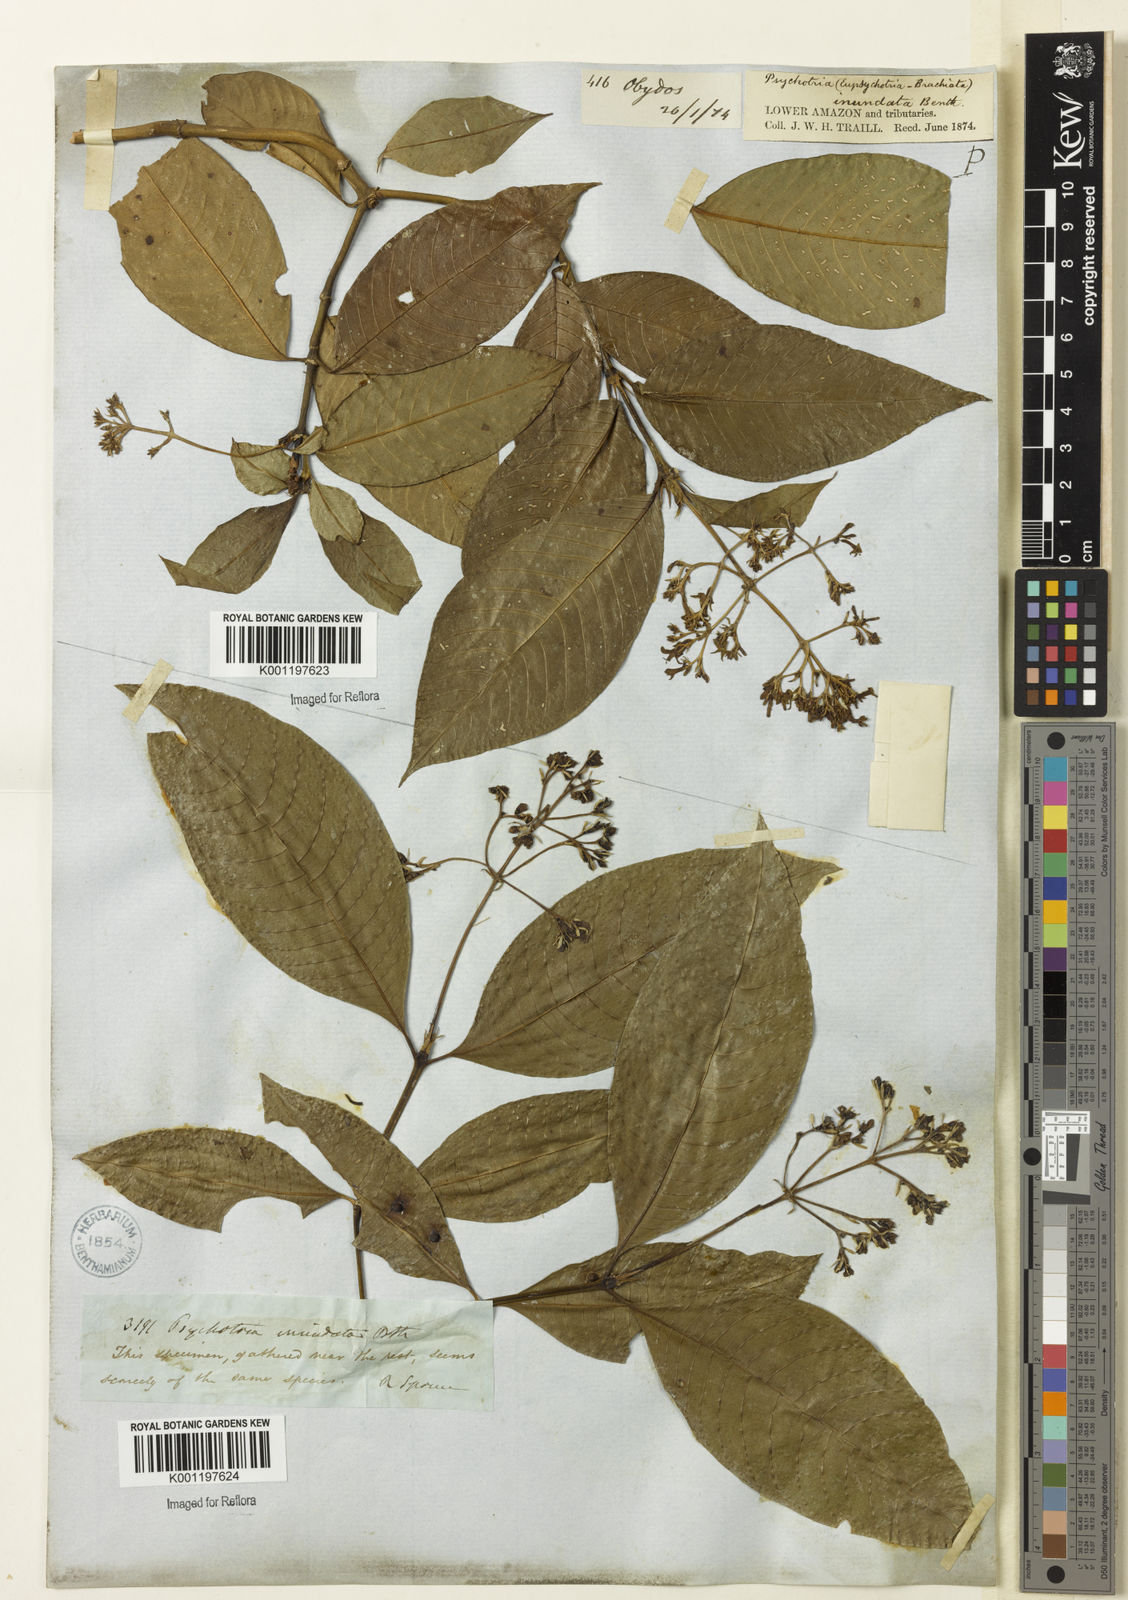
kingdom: Plantae
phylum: Tracheophyta
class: Magnoliopsida
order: Gentianales
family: Rubiaceae
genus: Palicourea
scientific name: Palicourea violacea
